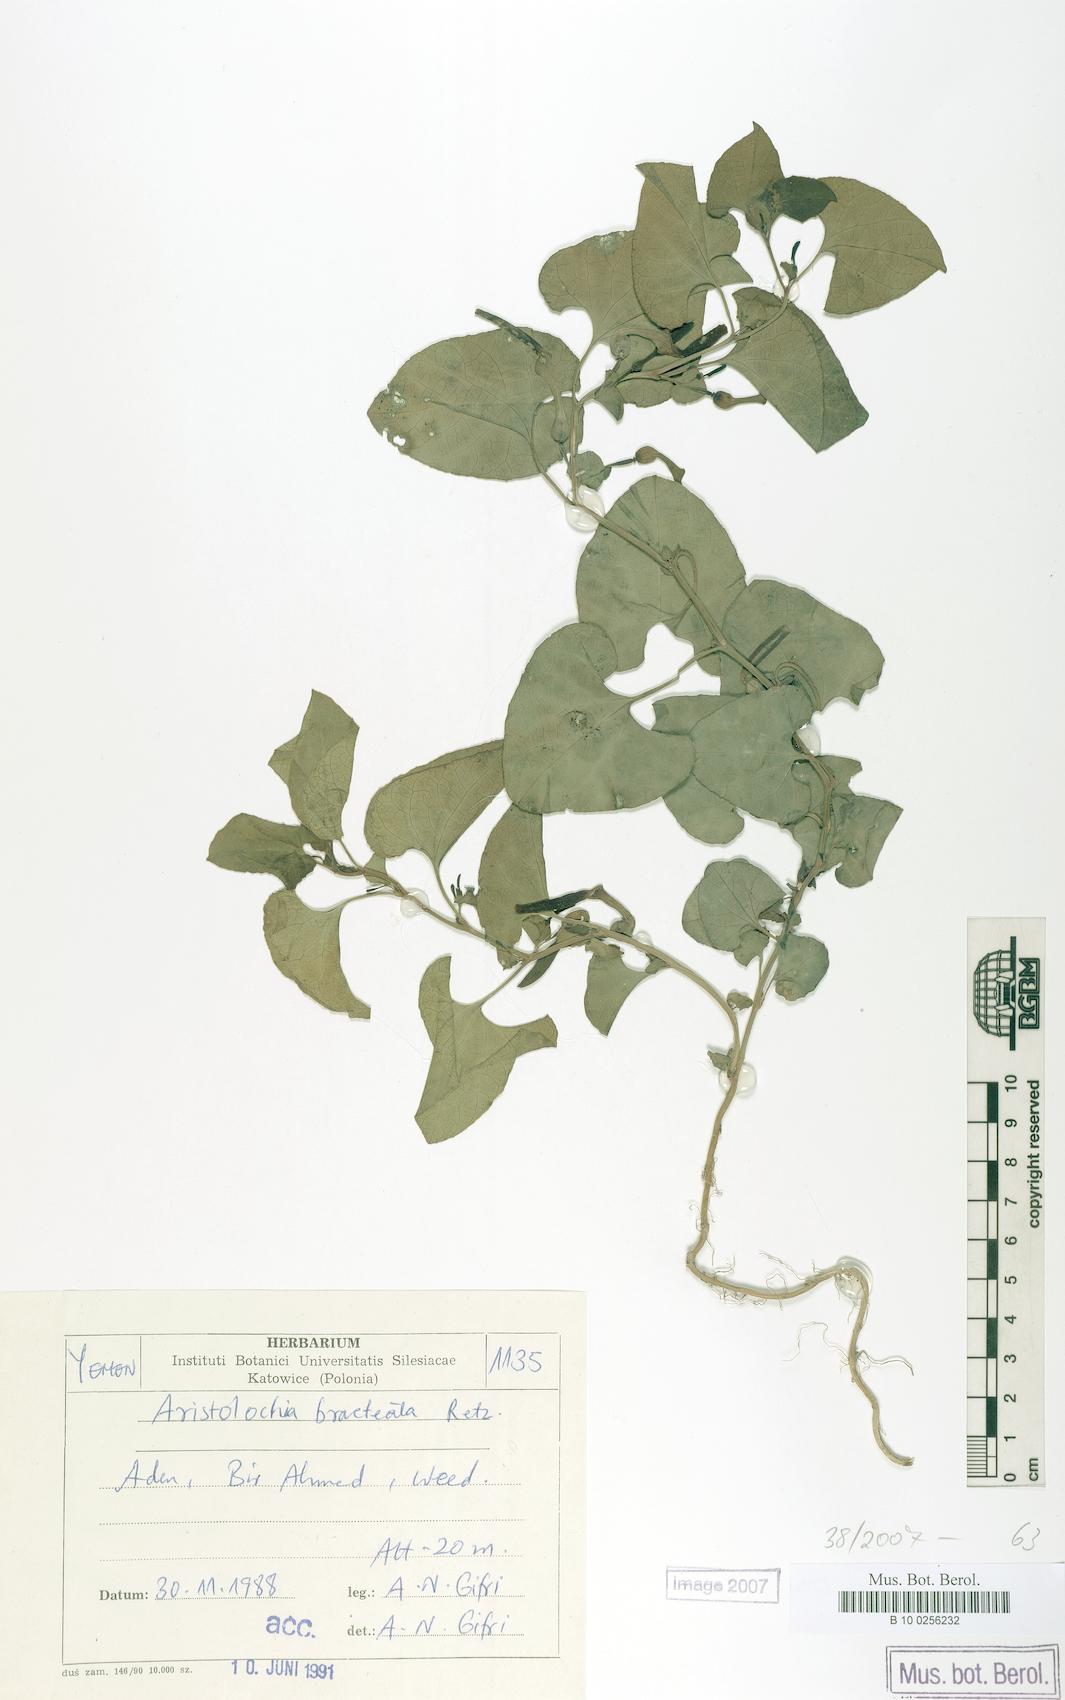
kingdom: Plantae
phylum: Tracheophyta
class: Magnoliopsida
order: Piperales
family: Aristolochiaceae
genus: Aristolochia
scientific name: Aristolochia bracteolata
